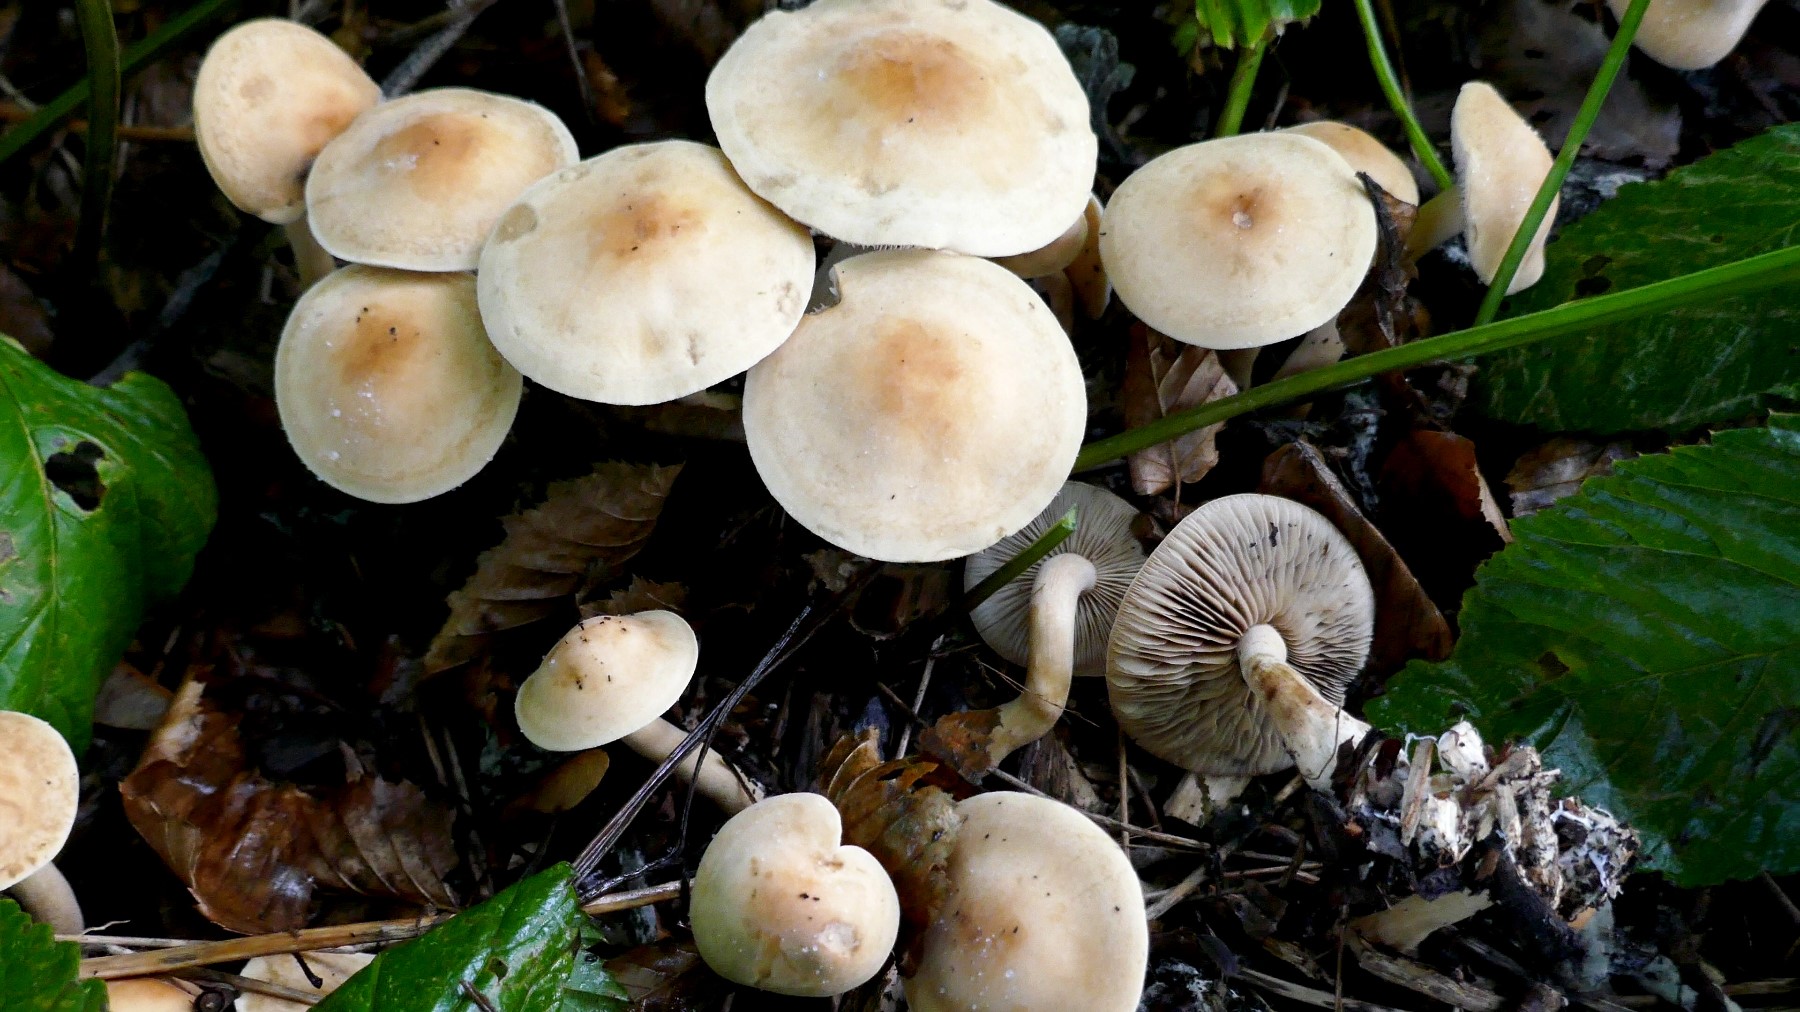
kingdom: Fungi
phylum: Basidiomycota
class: Agaricomycetes
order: Agaricales
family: Strophariaceae
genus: Agrocybe
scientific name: Agrocybe putaminum
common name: træflis-agerhat
